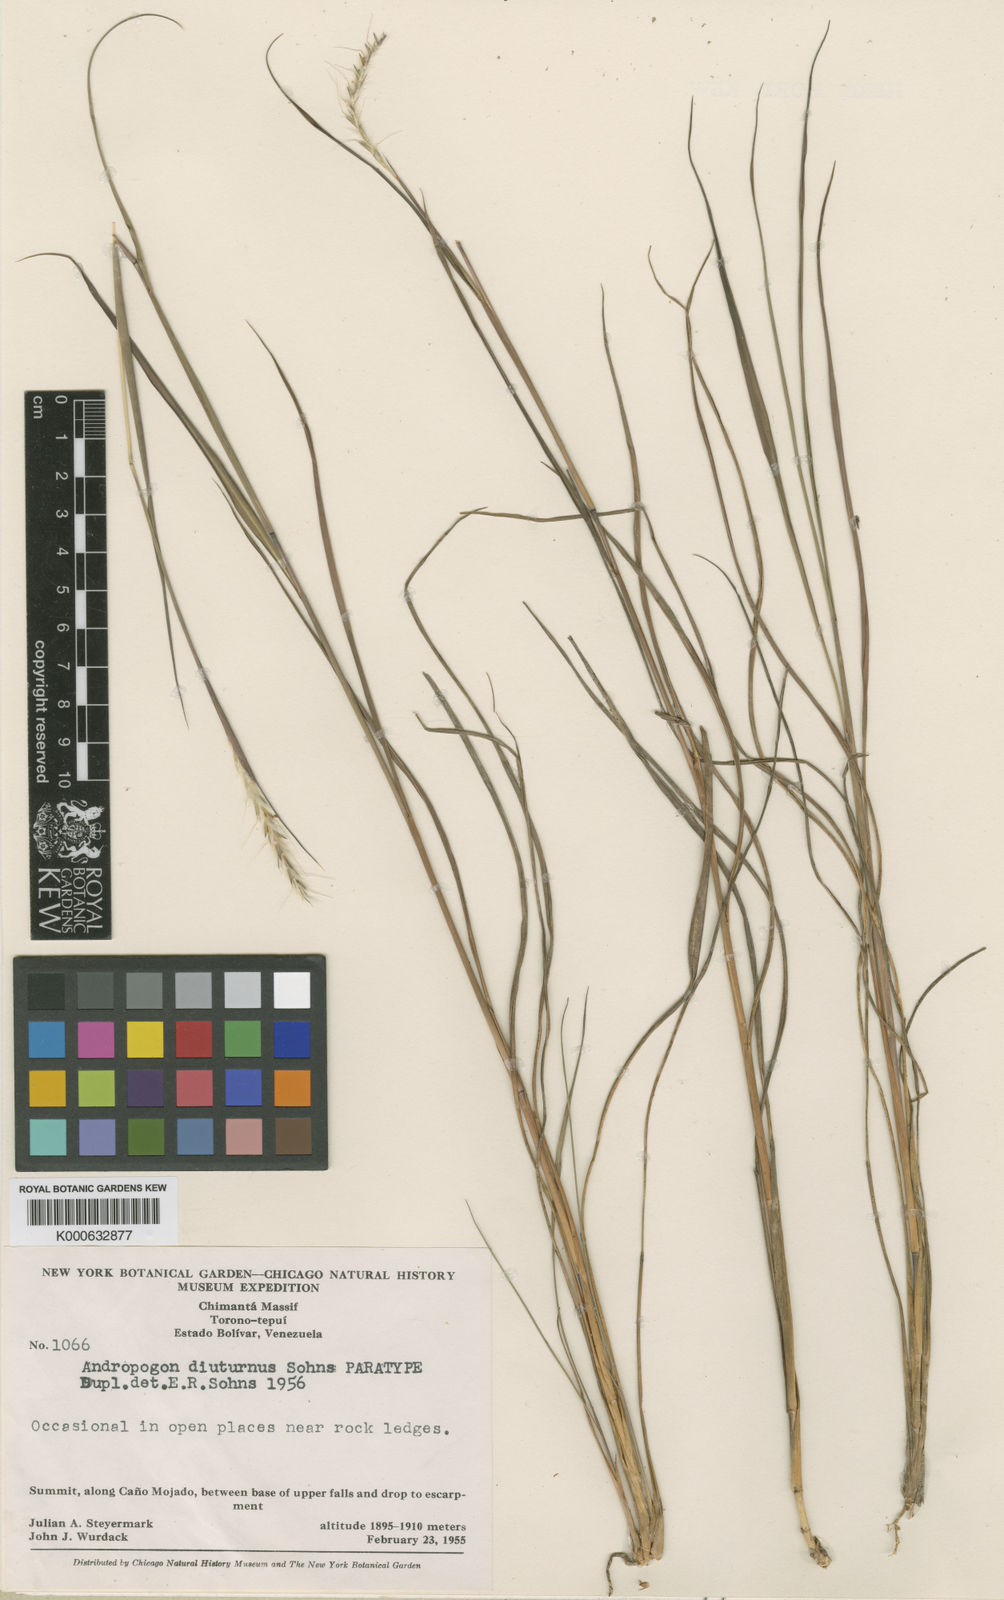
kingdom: Plantae
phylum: Tracheophyta
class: Liliopsida
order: Poales
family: Poaceae
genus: Andropogon
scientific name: Andropogon diuturnus
